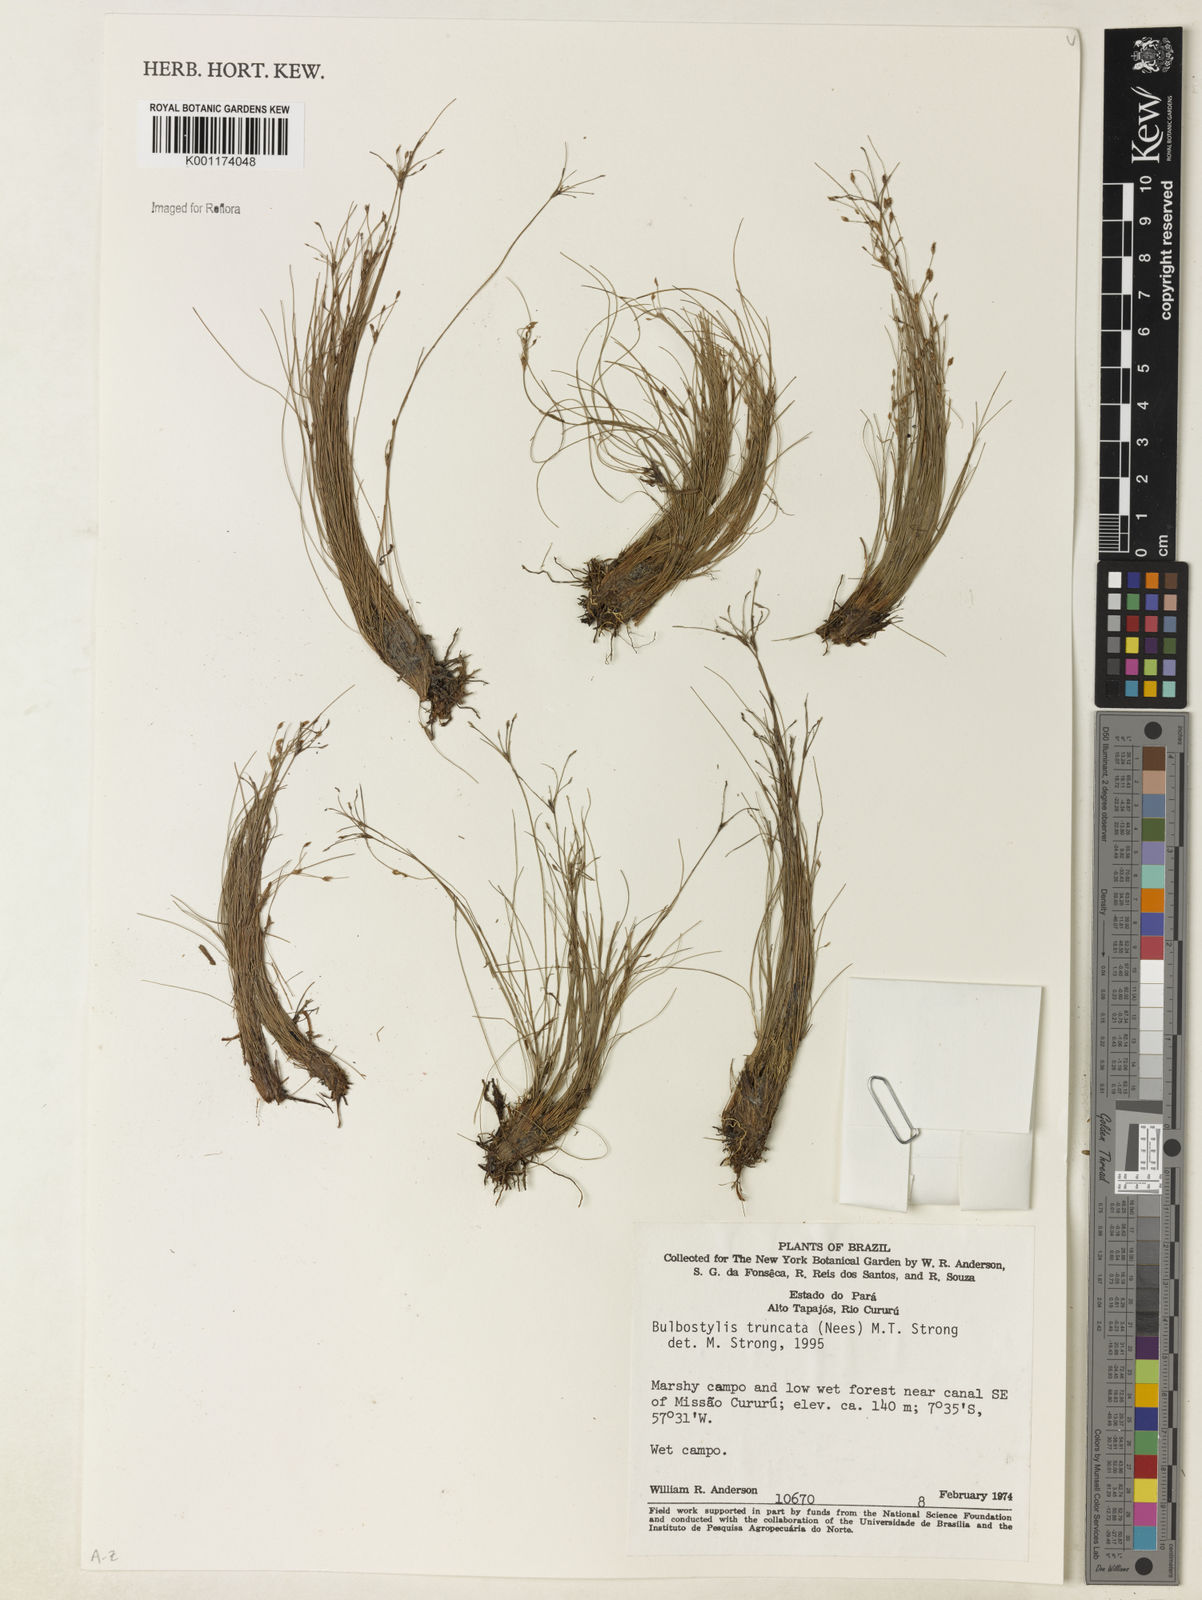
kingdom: Plantae
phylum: Tracheophyta
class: Liliopsida
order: Poales
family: Cyperaceae
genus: Bulbostylis
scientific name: Bulbostylis truncata
